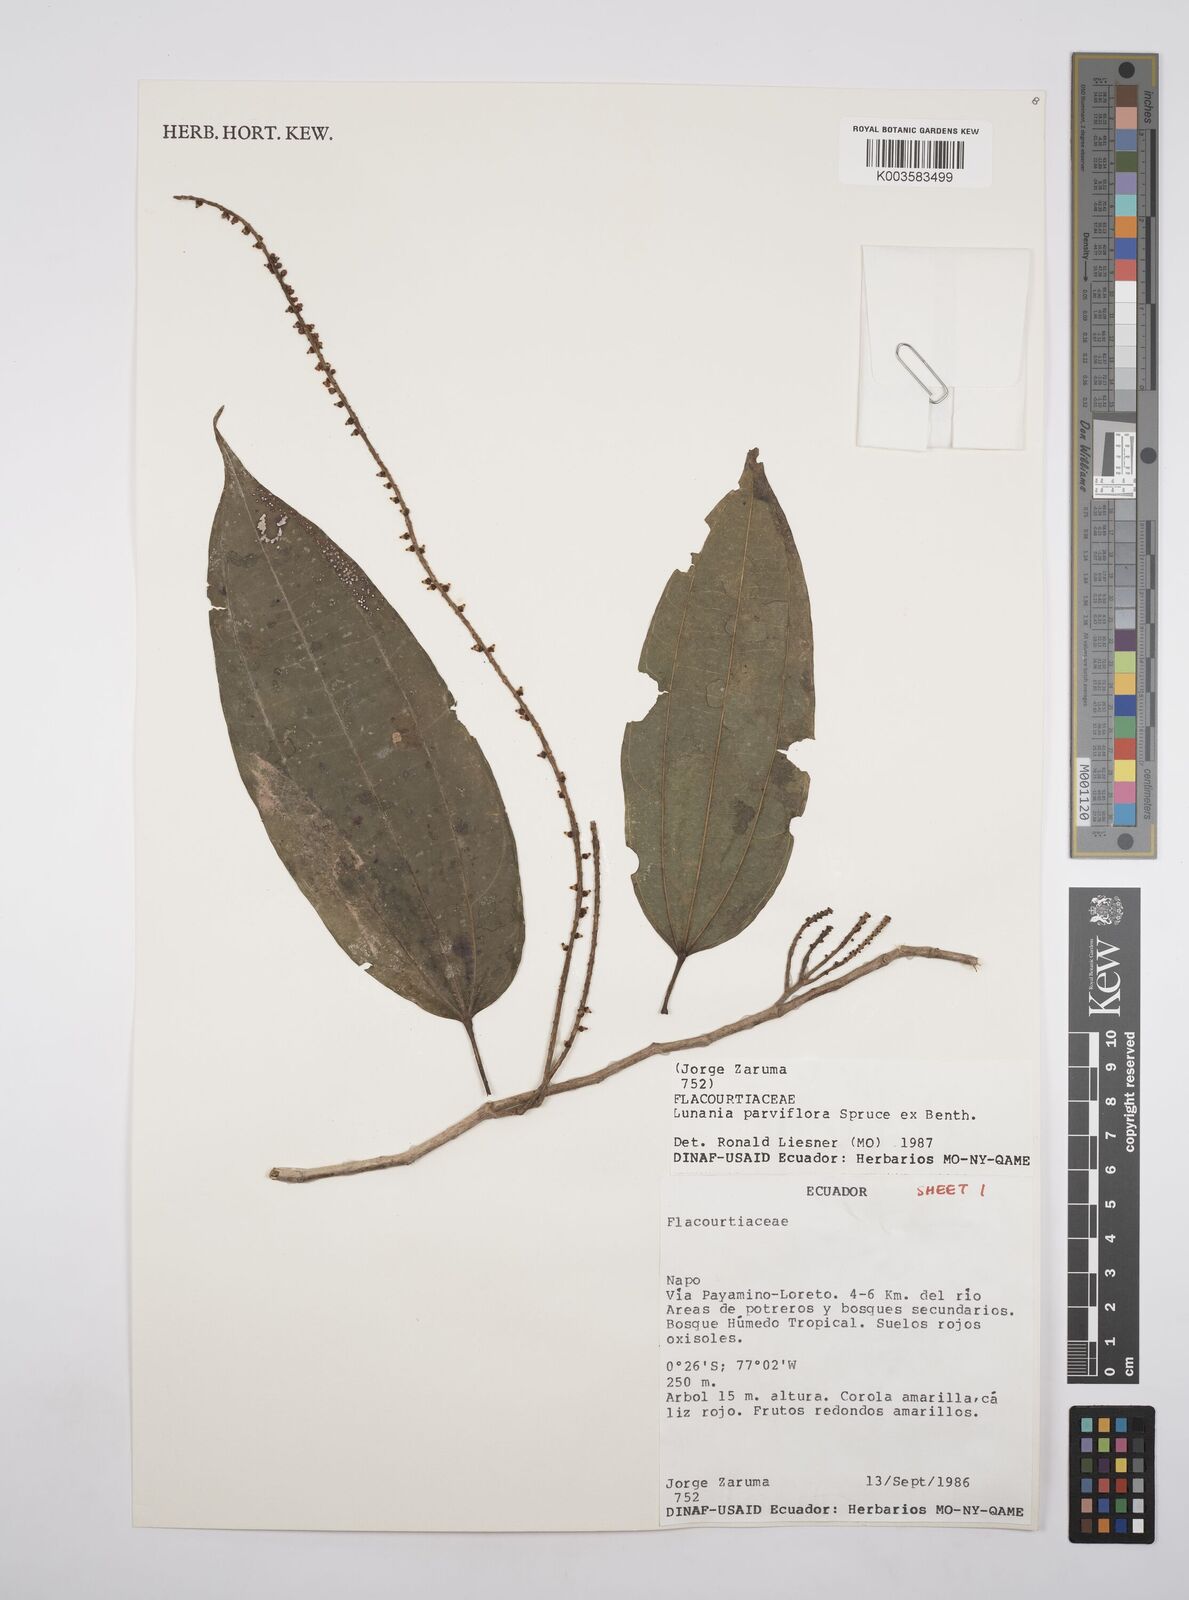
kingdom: Plantae
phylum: Tracheophyta
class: Magnoliopsida
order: Malpighiales
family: Salicaceae
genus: Lunania
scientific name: Lunania parviflora
